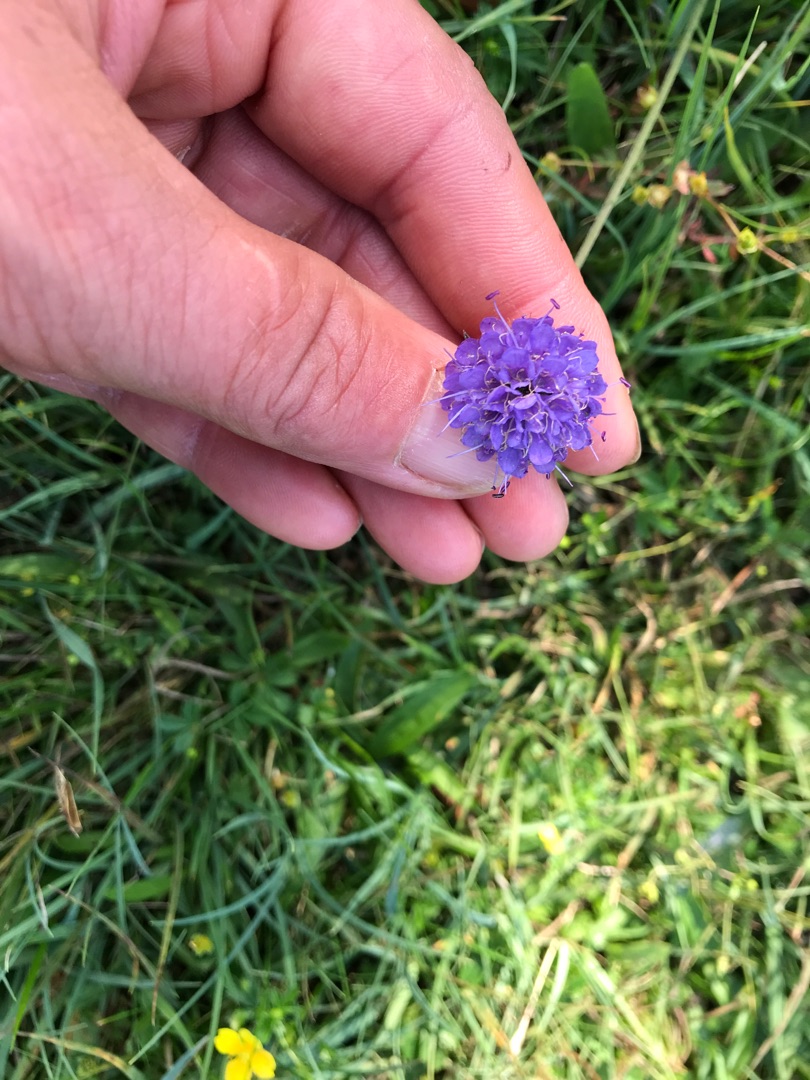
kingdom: Plantae
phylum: Tracheophyta
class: Magnoliopsida
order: Dipsacales
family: Caprifoliaceae
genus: Succisa
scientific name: Succisa pratensis
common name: Djævelsbid
